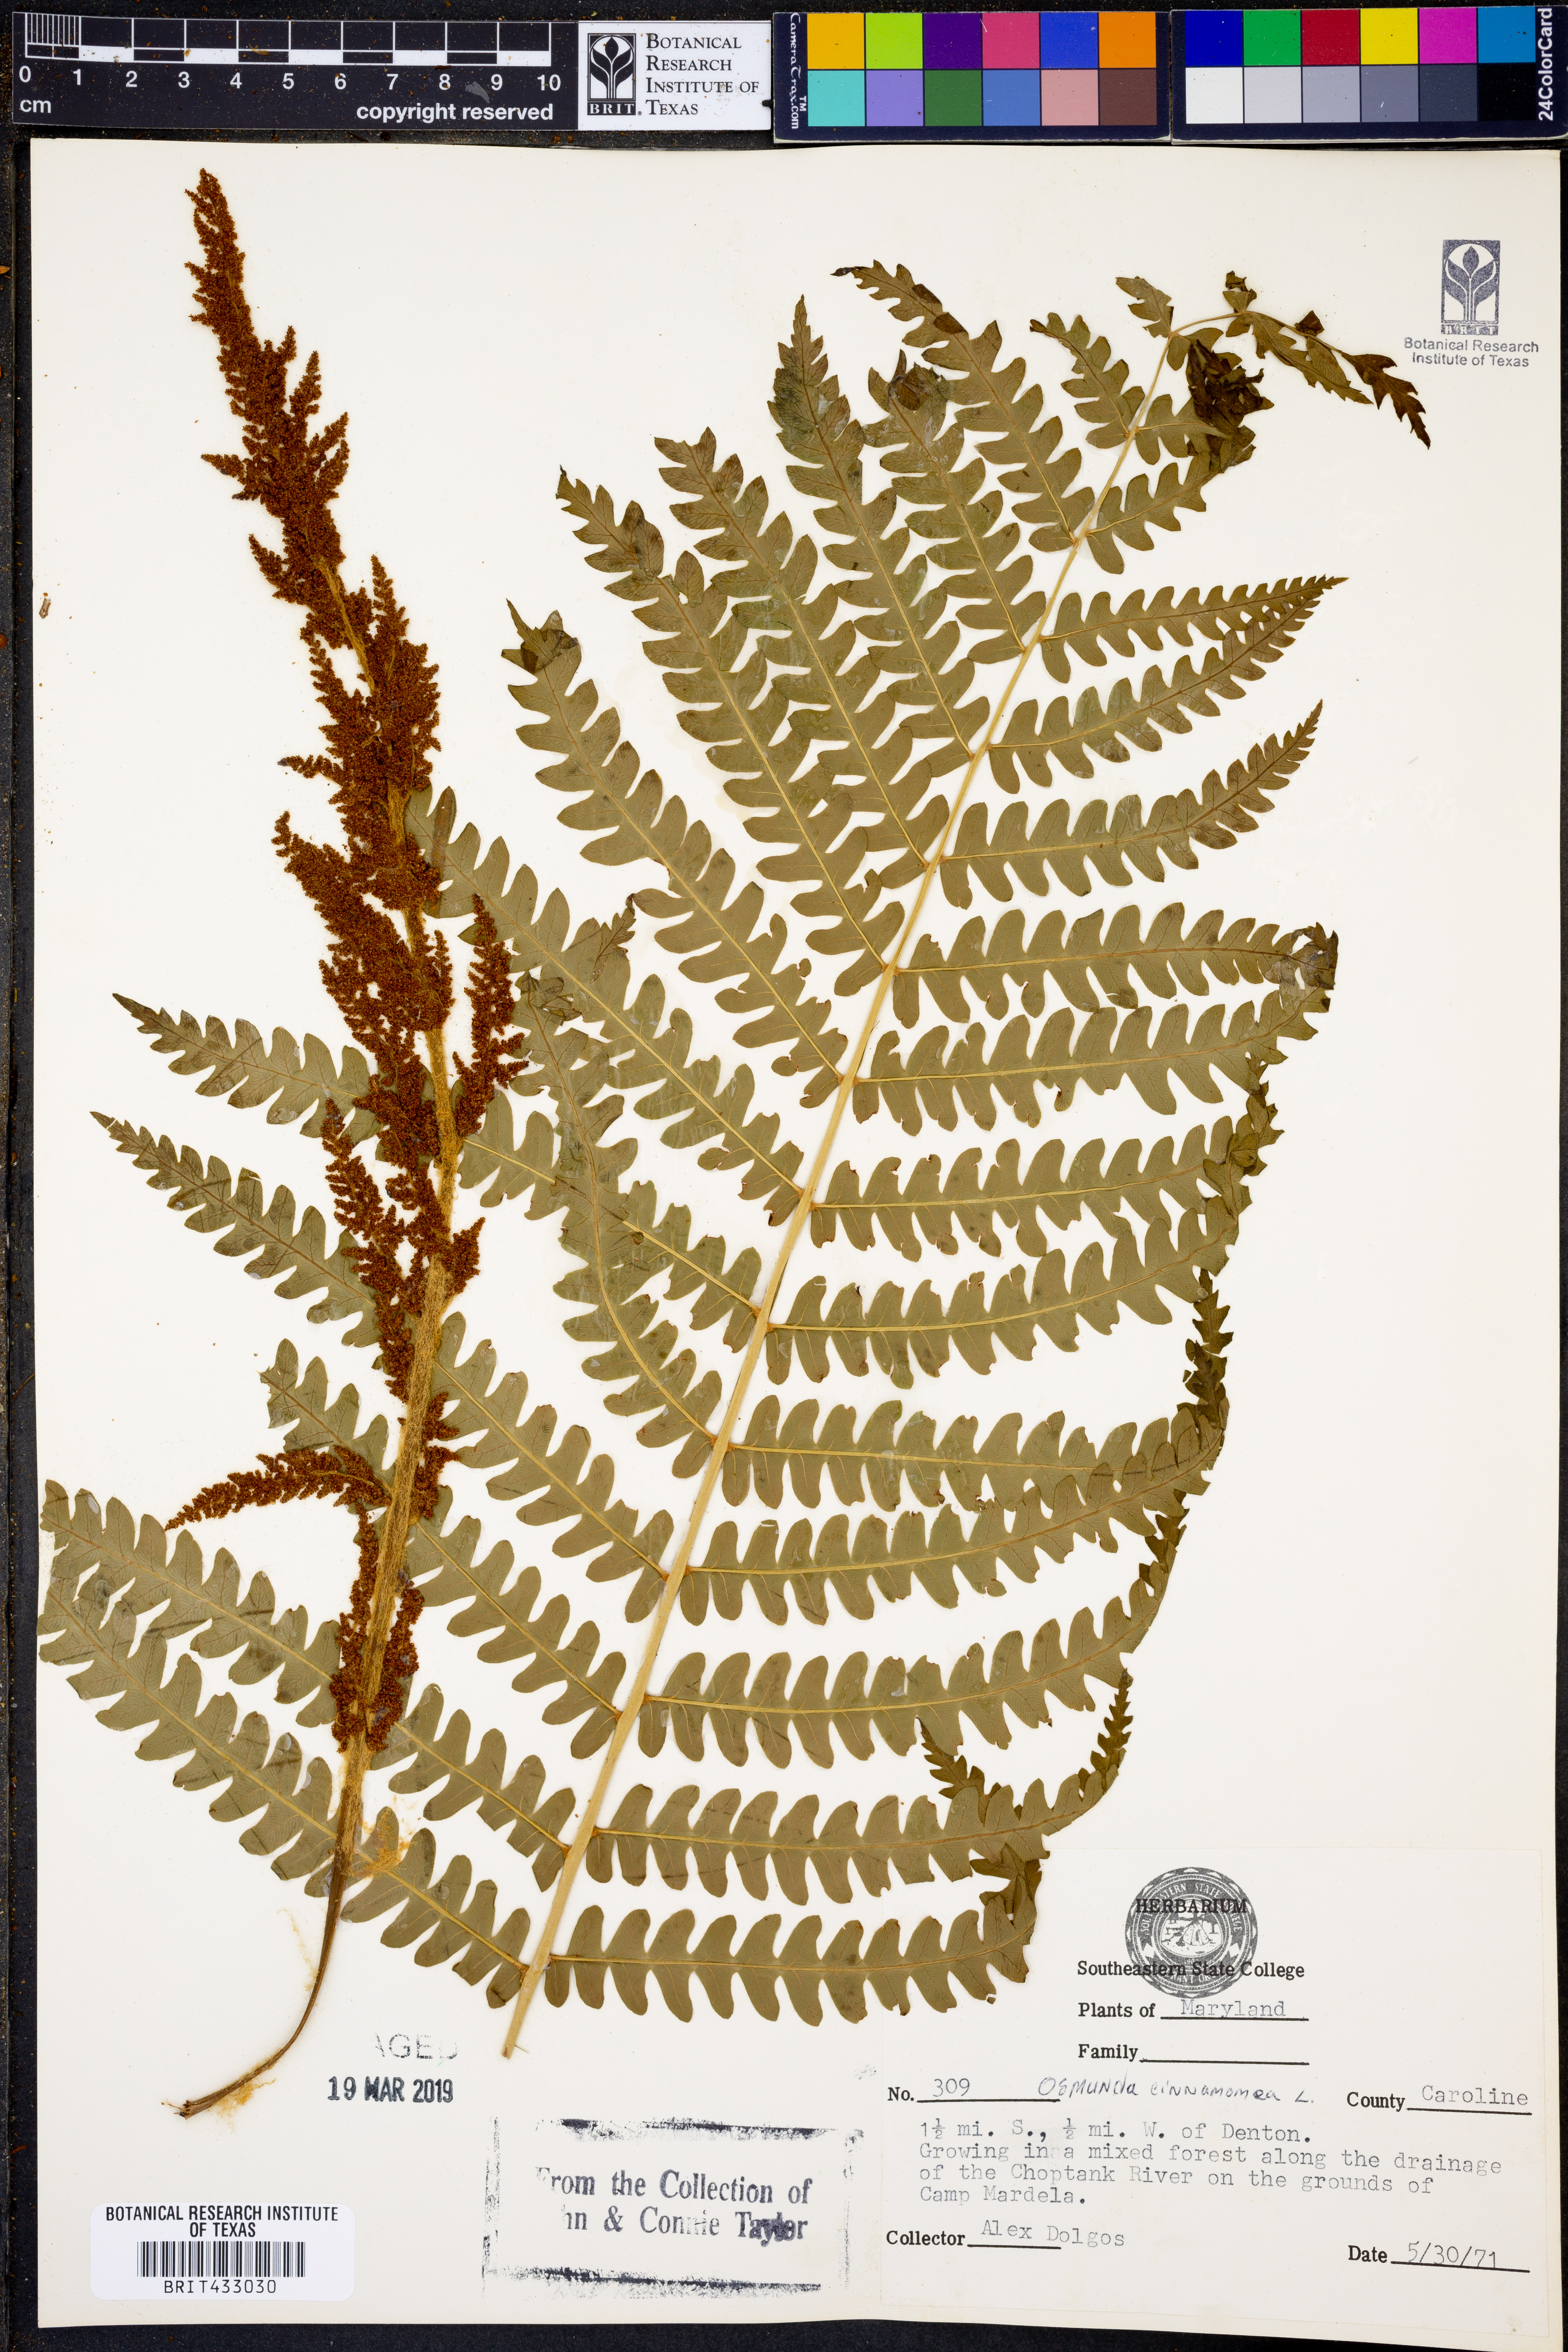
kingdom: Plantae
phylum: Tracheophyta
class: Polypodiopsida
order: Osmundales
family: Osmundaceae
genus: Osmundastrum
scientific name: Osmundastrum cinnamomeum
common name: Cinnamon fern
